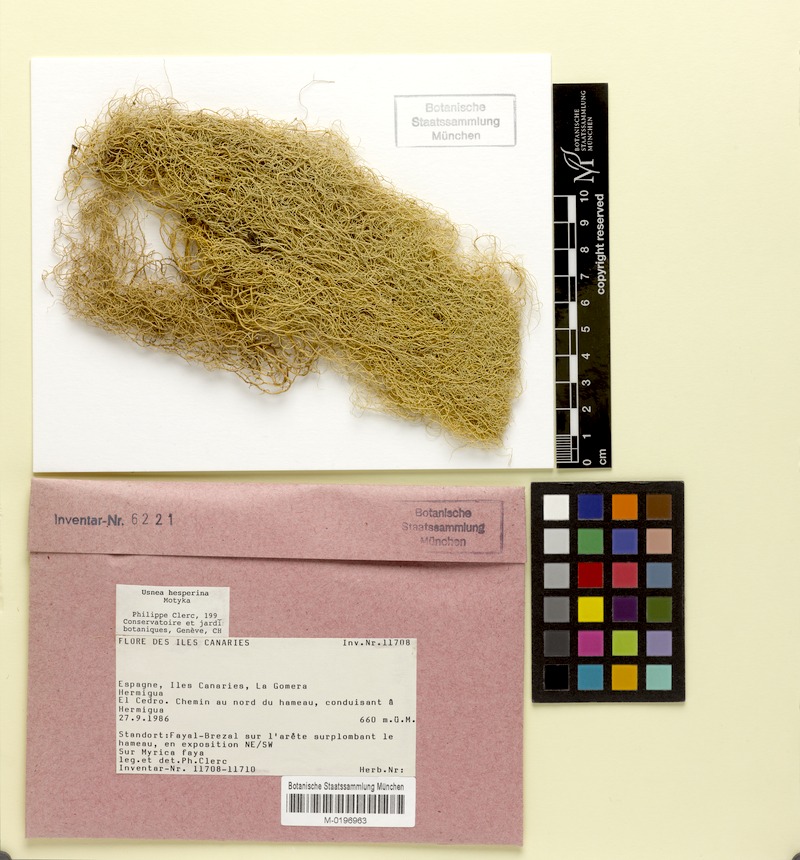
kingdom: Fungi
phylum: Ascomycota
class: Lecanoromycetes
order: Lecanorales
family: Parmeliaceae
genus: Usnea
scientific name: Usnea subgracilis
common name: Beard lichen
